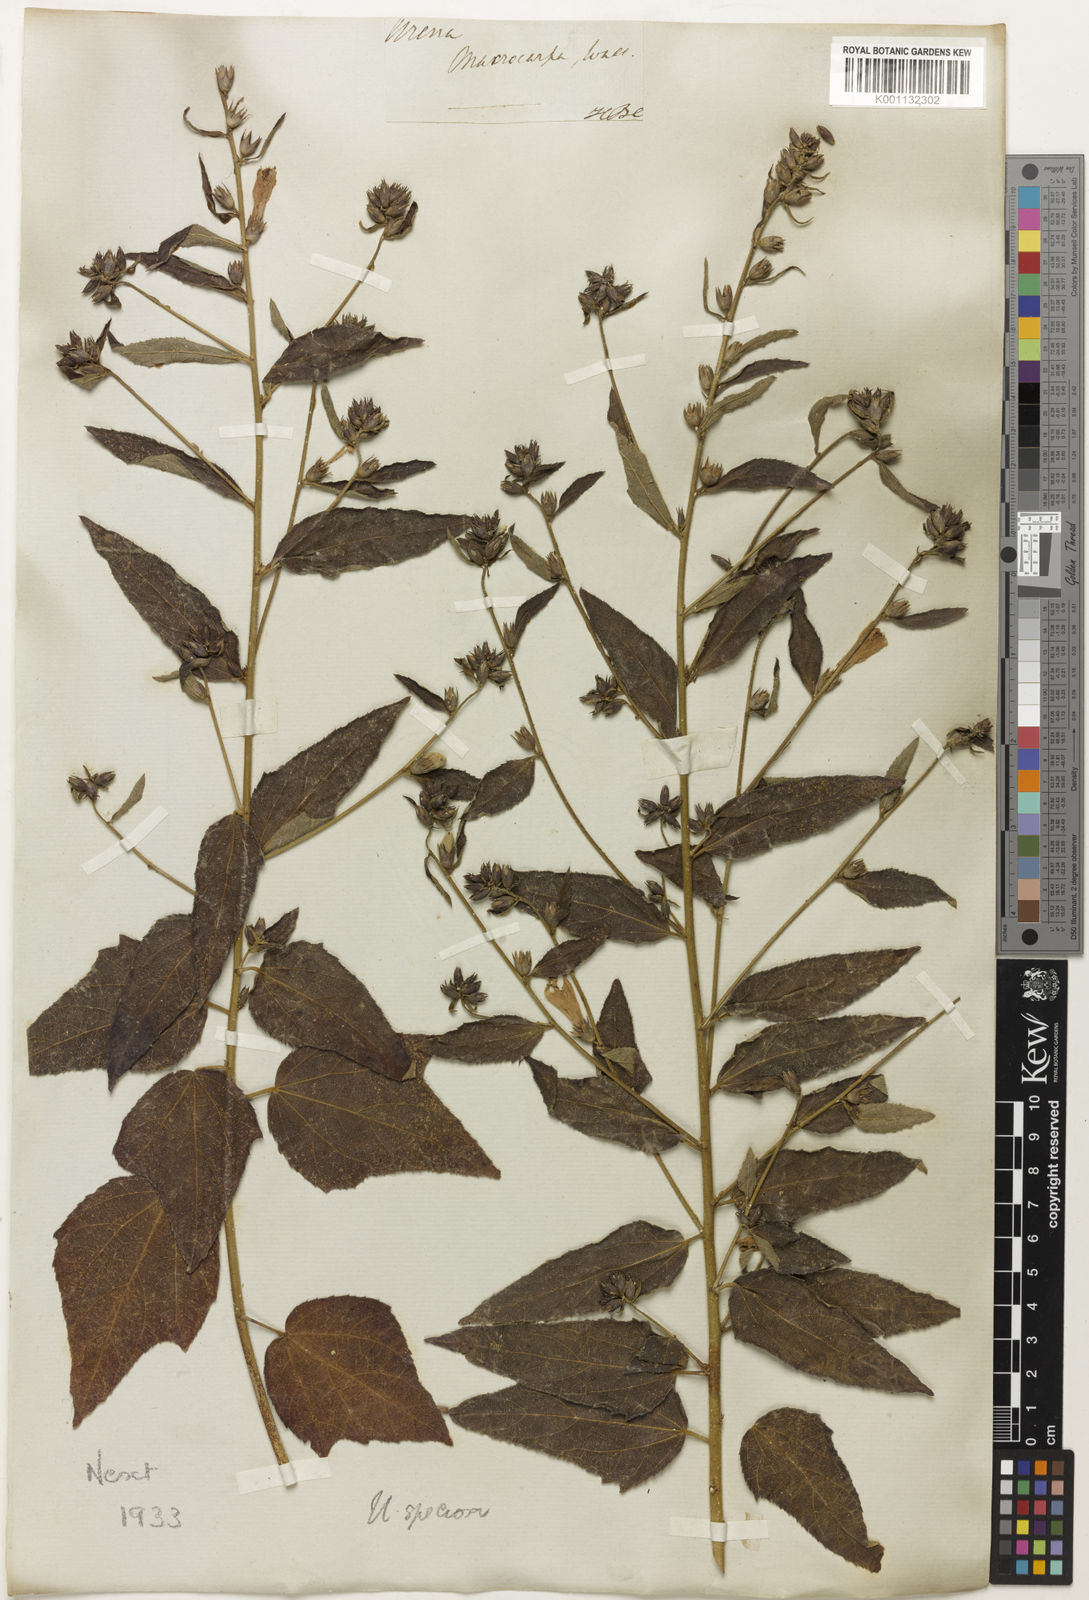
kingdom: Plantae
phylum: Tracheophyta
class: Magnoliopsida
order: Malvales
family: Malvaceae
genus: Urena
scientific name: Urena
